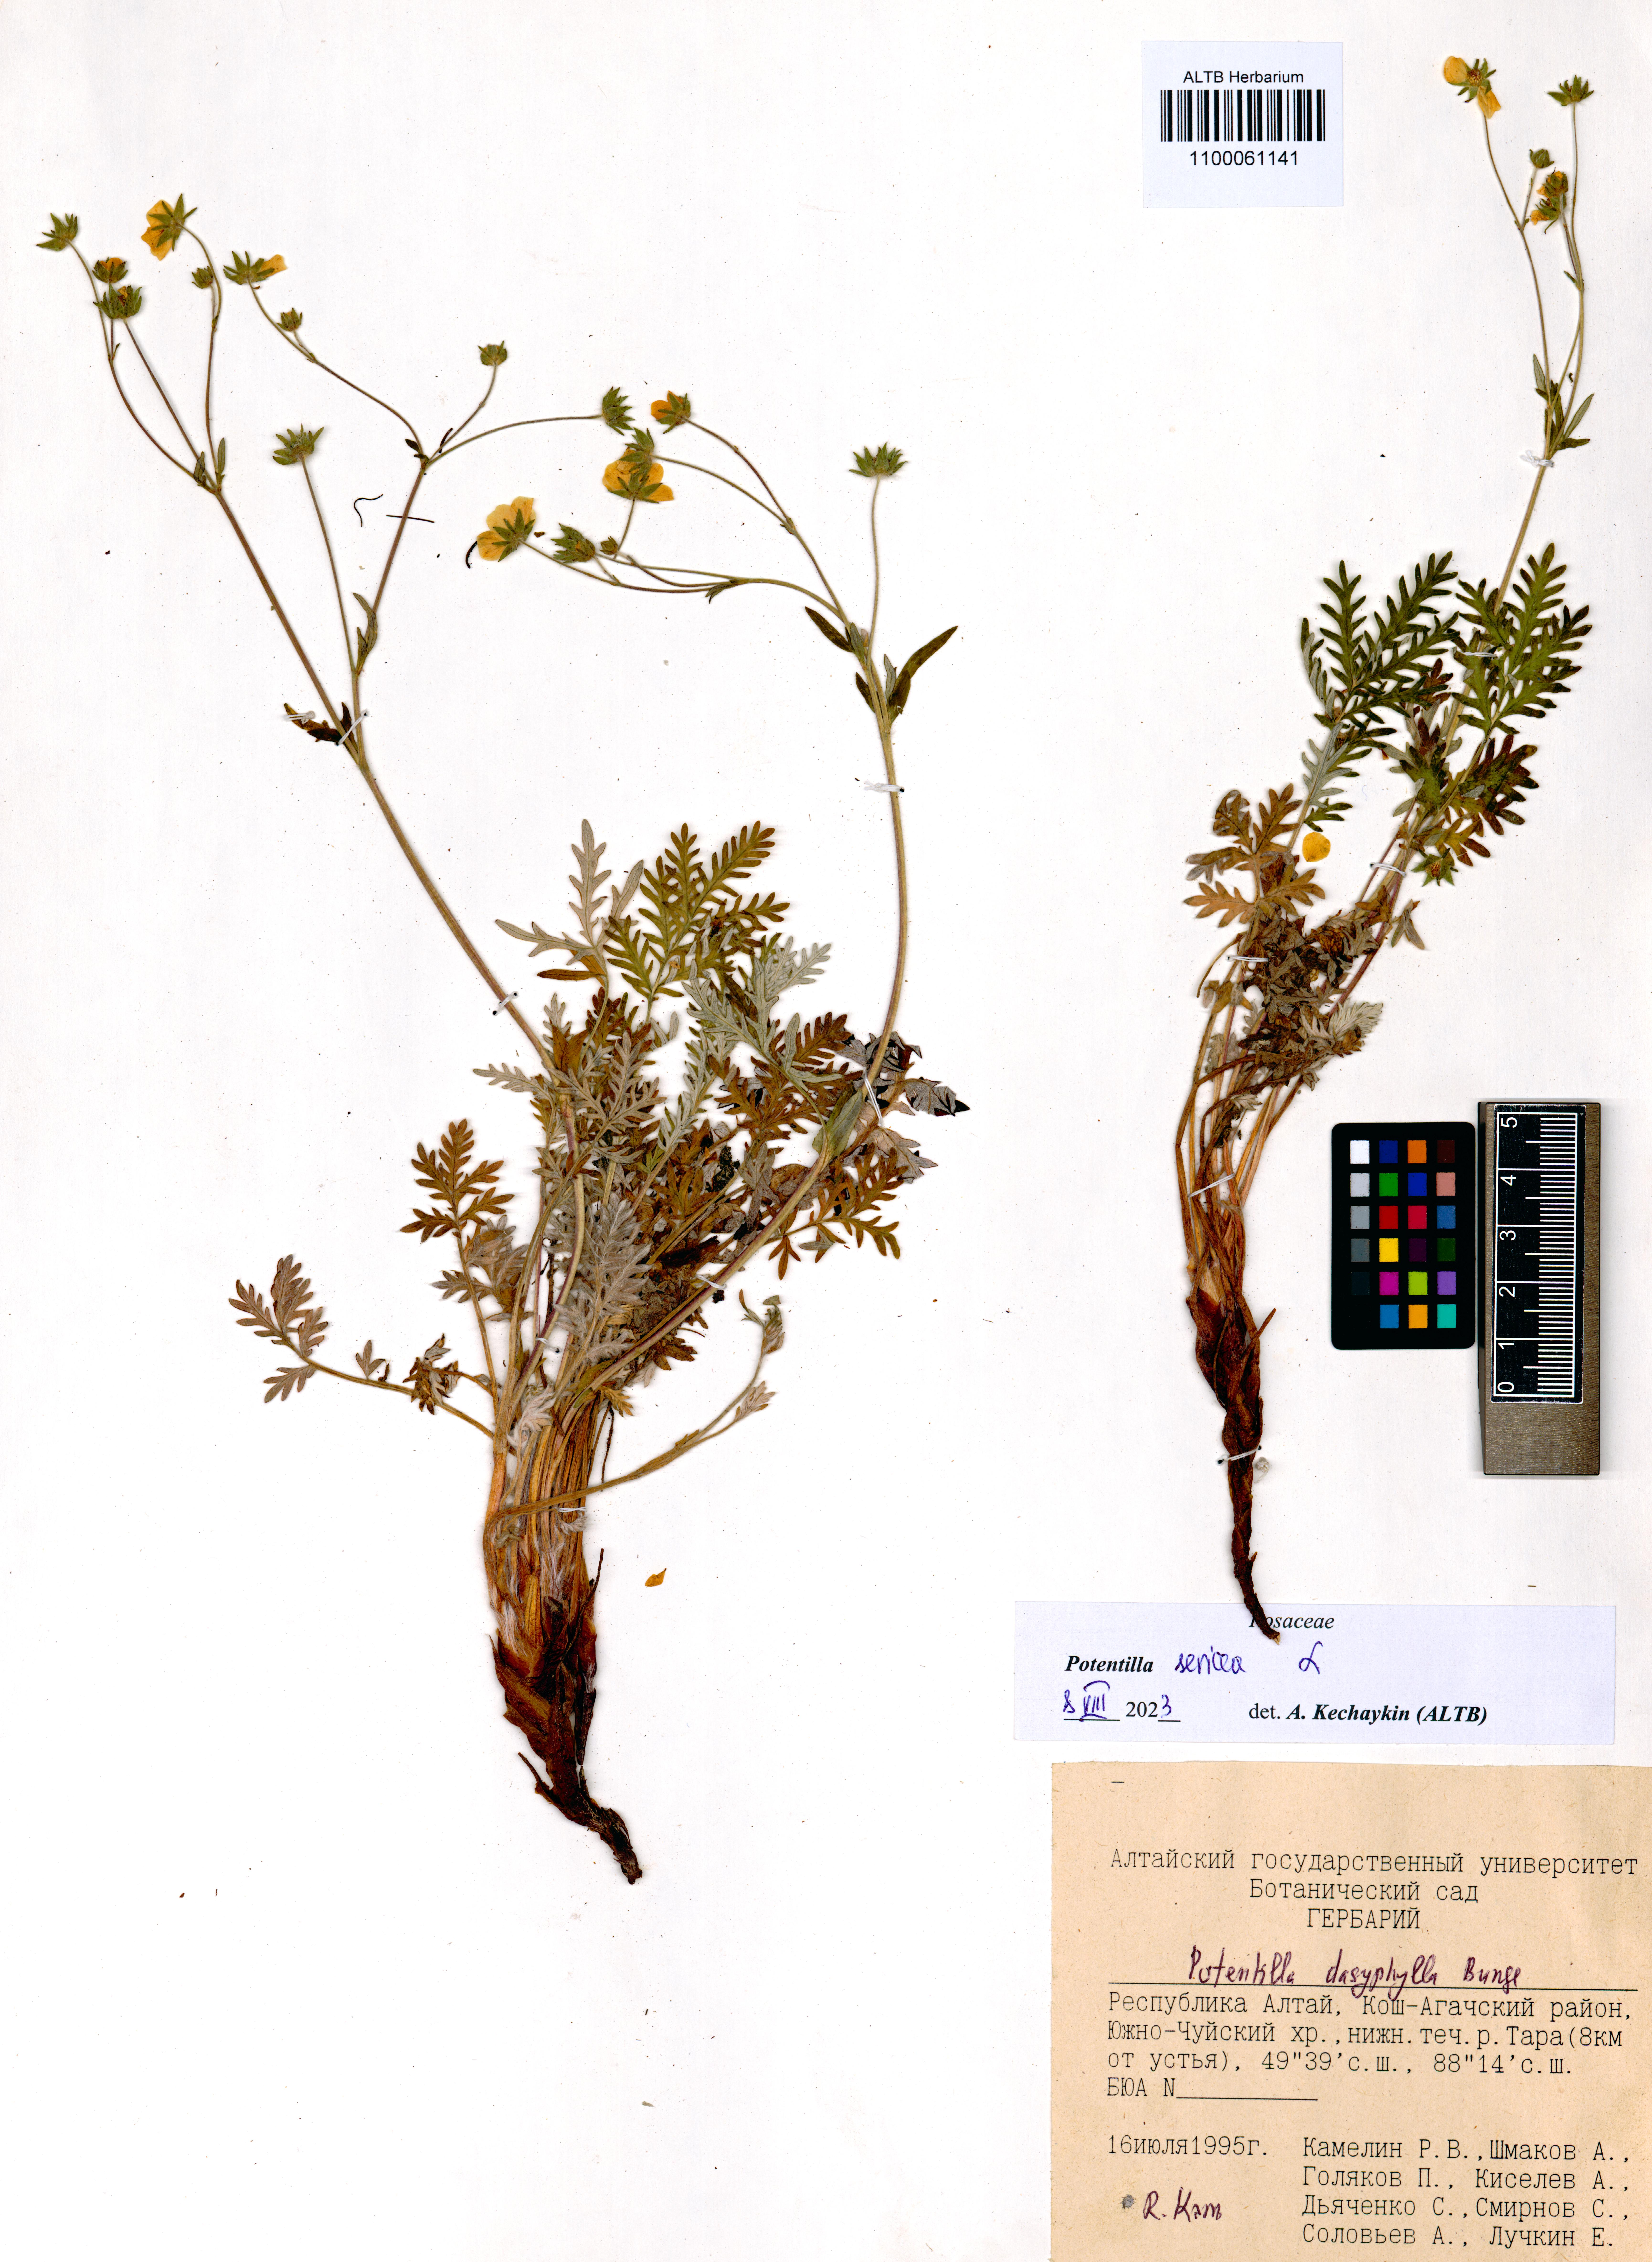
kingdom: Plantae
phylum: Tracheophyta
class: Magnoliopsida
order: Rosales
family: Rosaceae
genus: Potentilla
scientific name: Potentilla sericea
